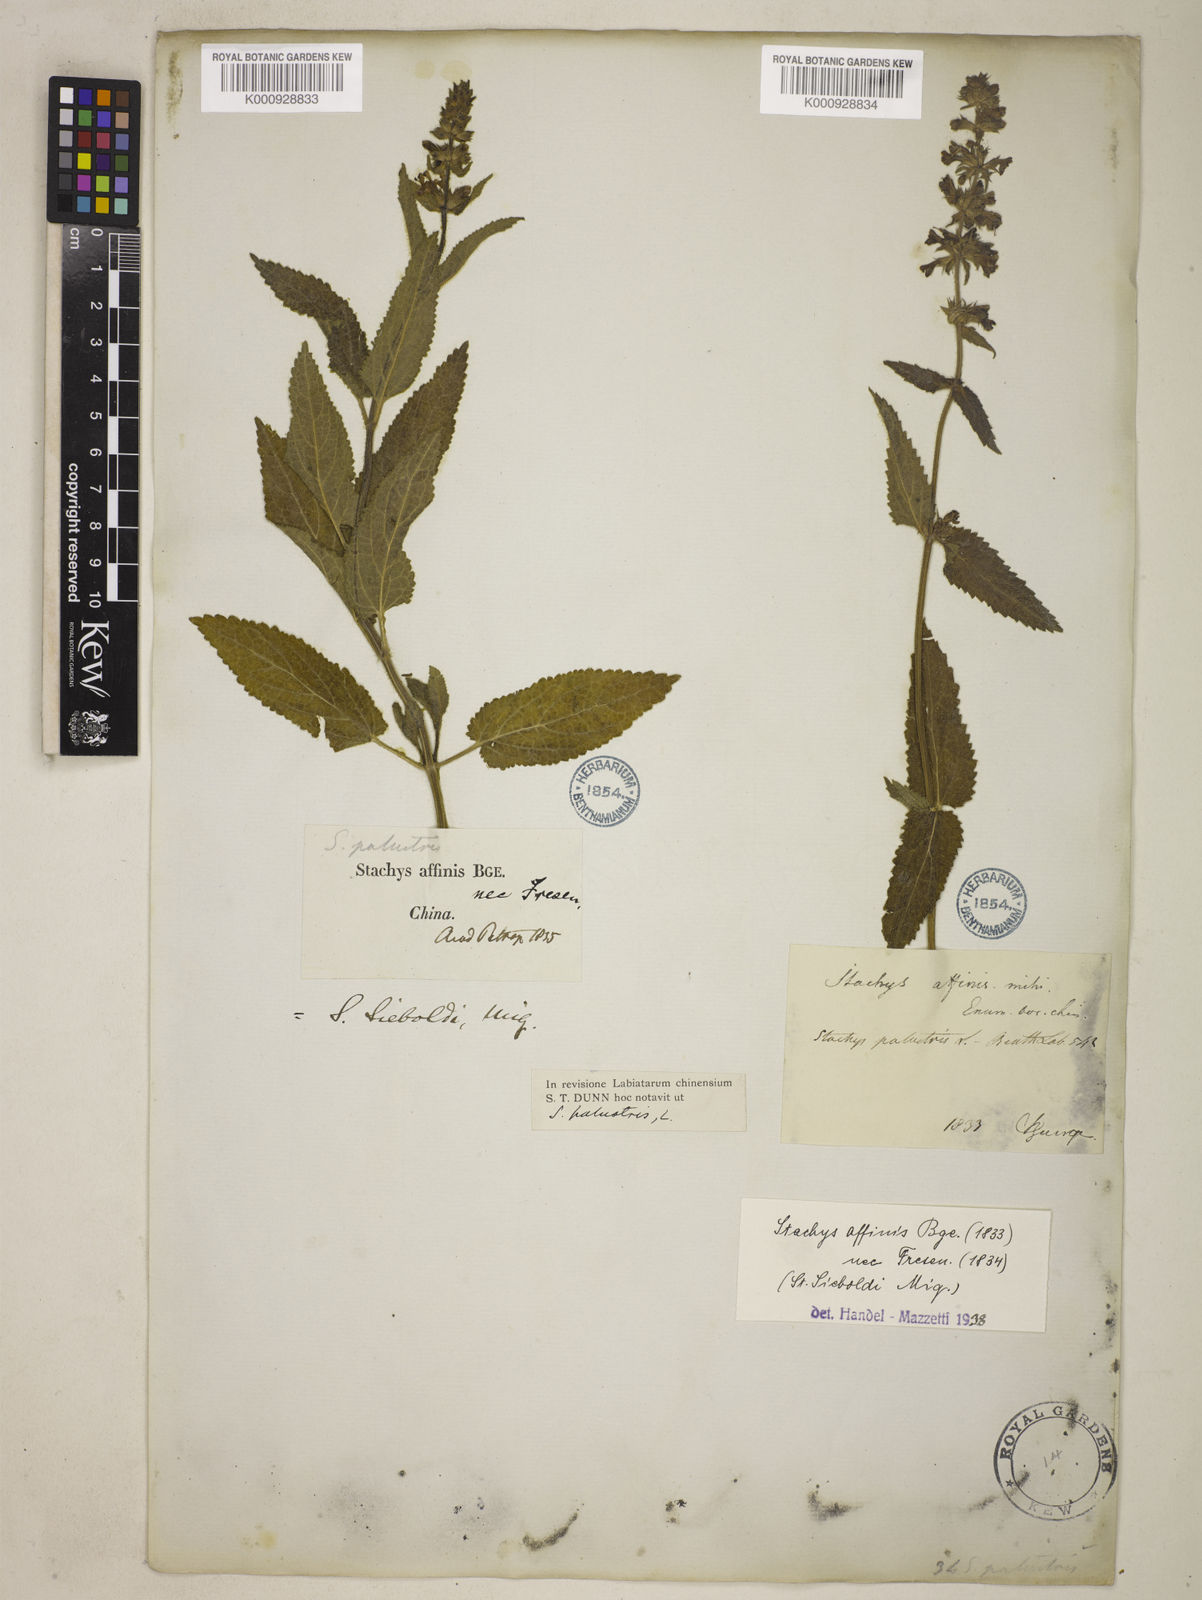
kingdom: Plantae
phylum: Tracheophyta
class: Magnoliopsida
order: Lamiales
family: Lamiaceae
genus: Stachys
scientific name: Stachys affinis
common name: Chinese-artichoke
